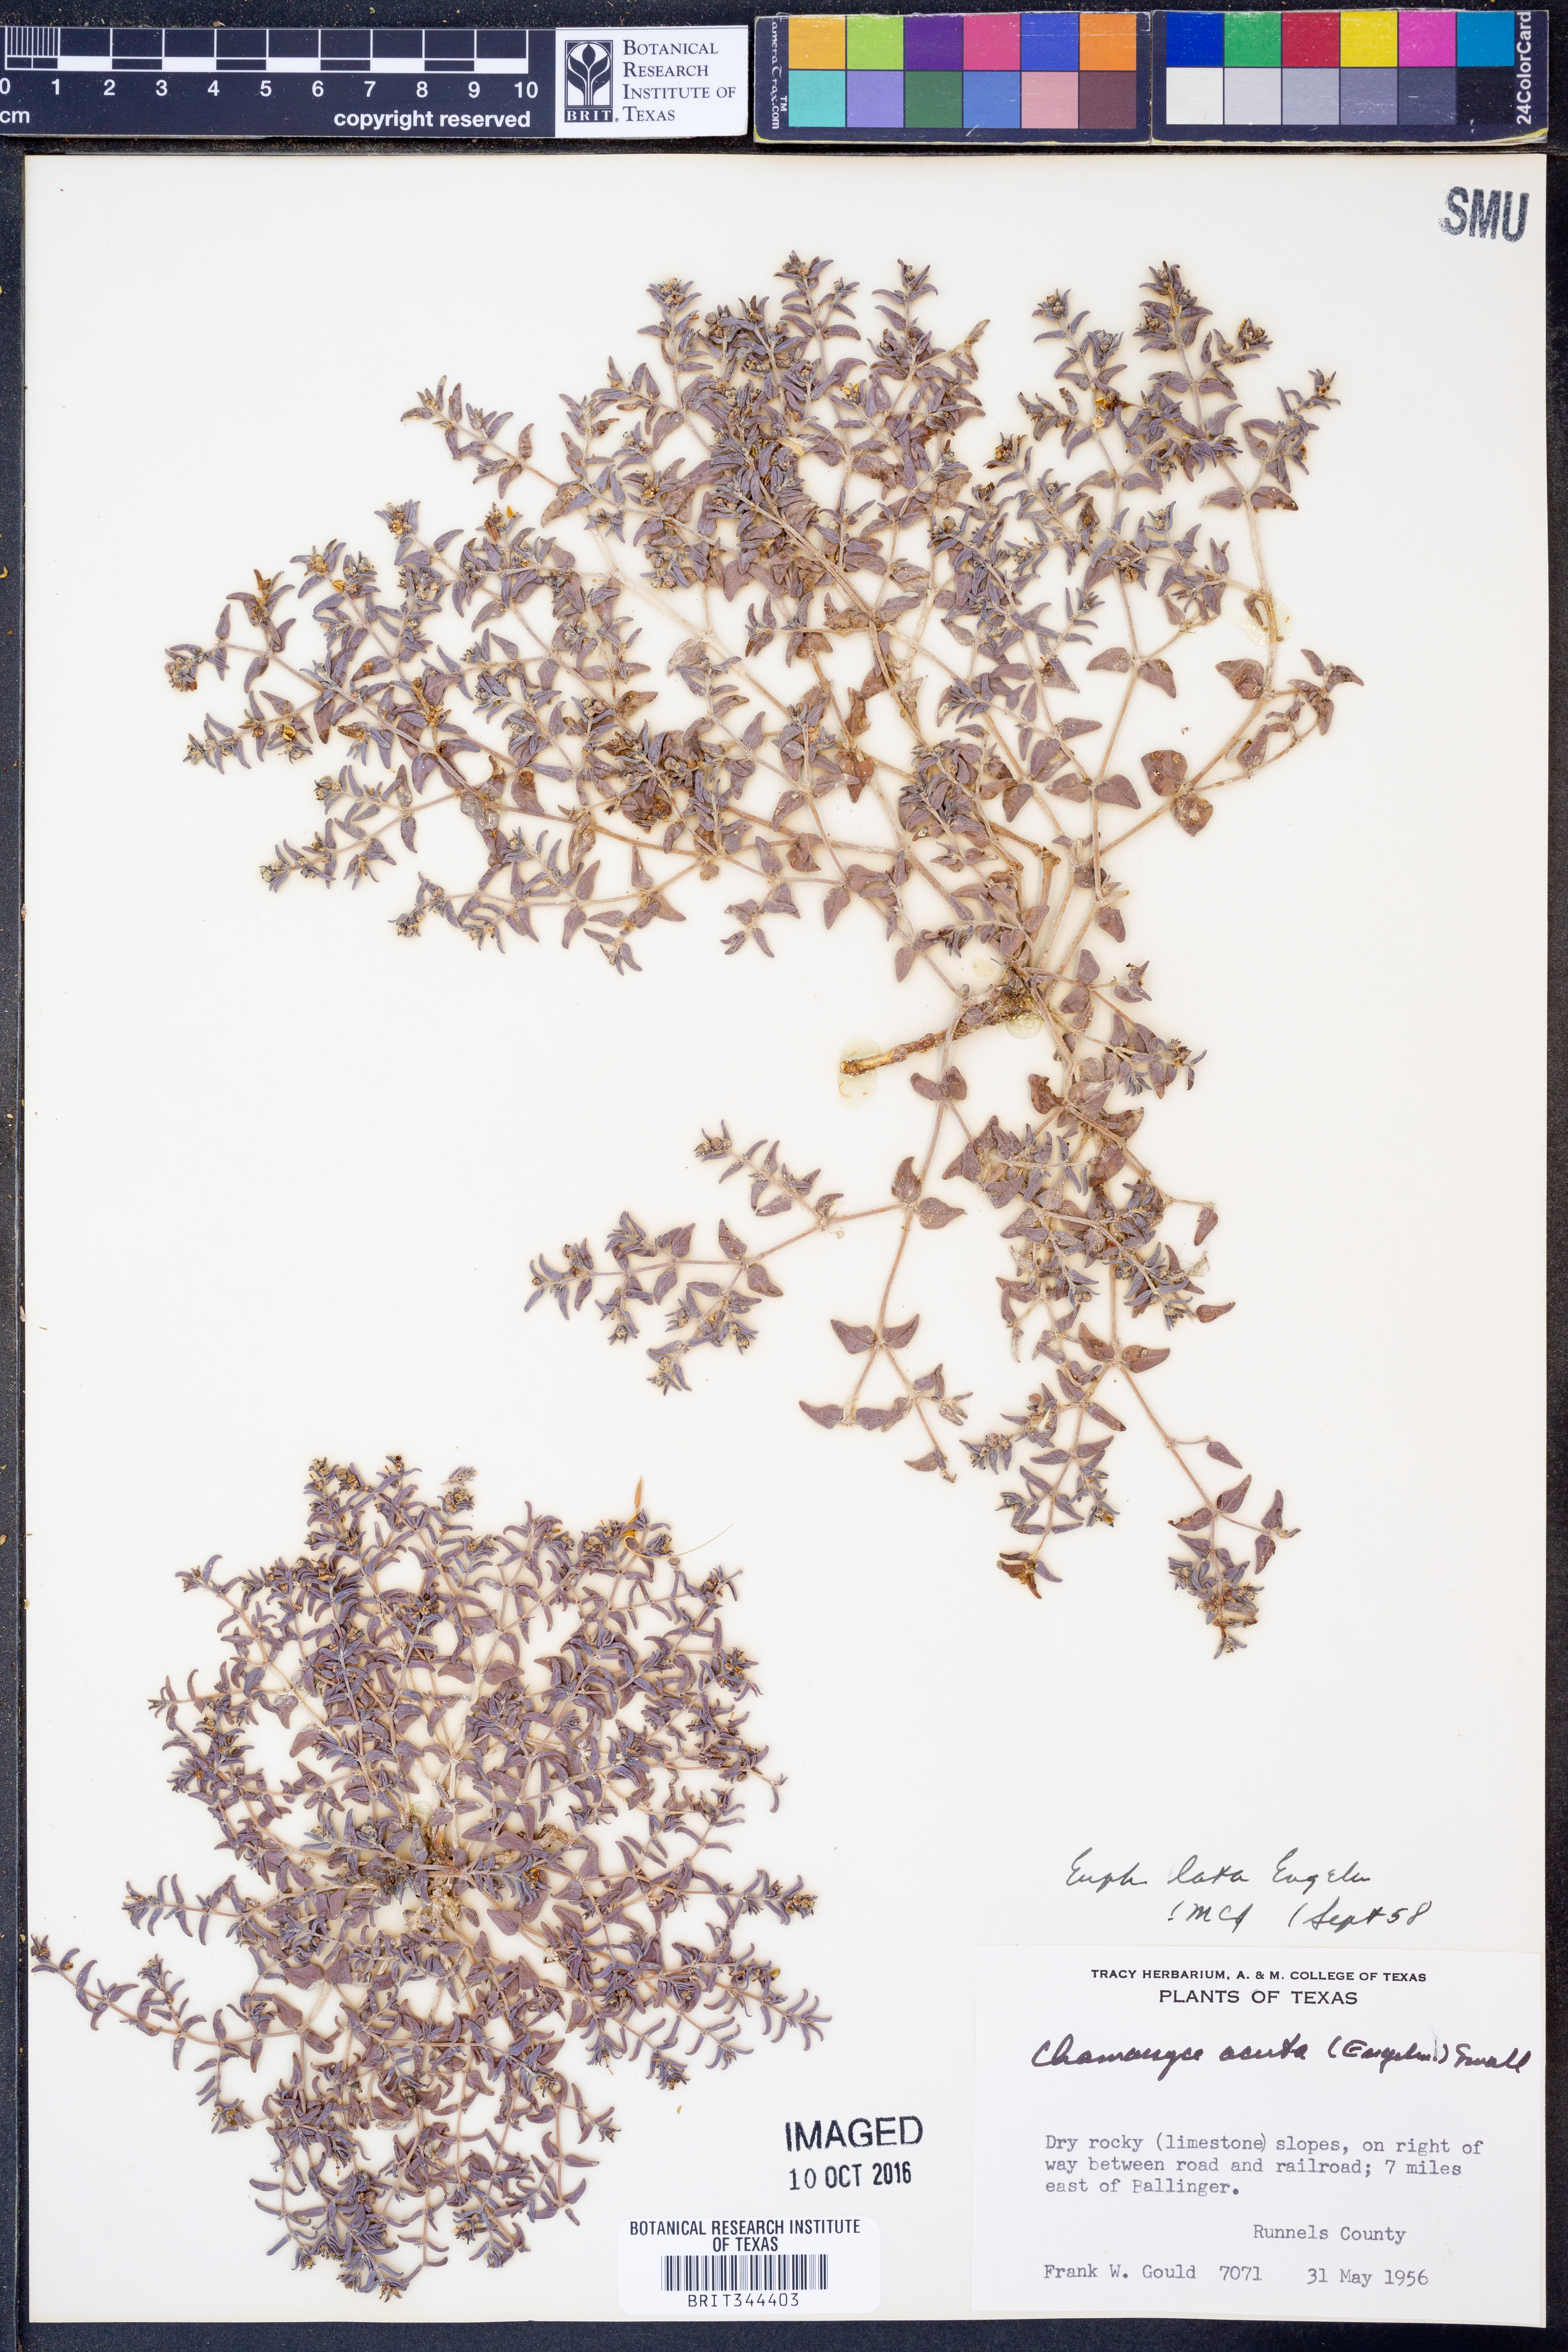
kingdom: Plantae
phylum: Tracheophyta
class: Magnoliopsida
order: Malpighiales
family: Euphorbiaceae
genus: Euphorbia
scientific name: Euphorbia lata
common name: Hoary euphorbia
